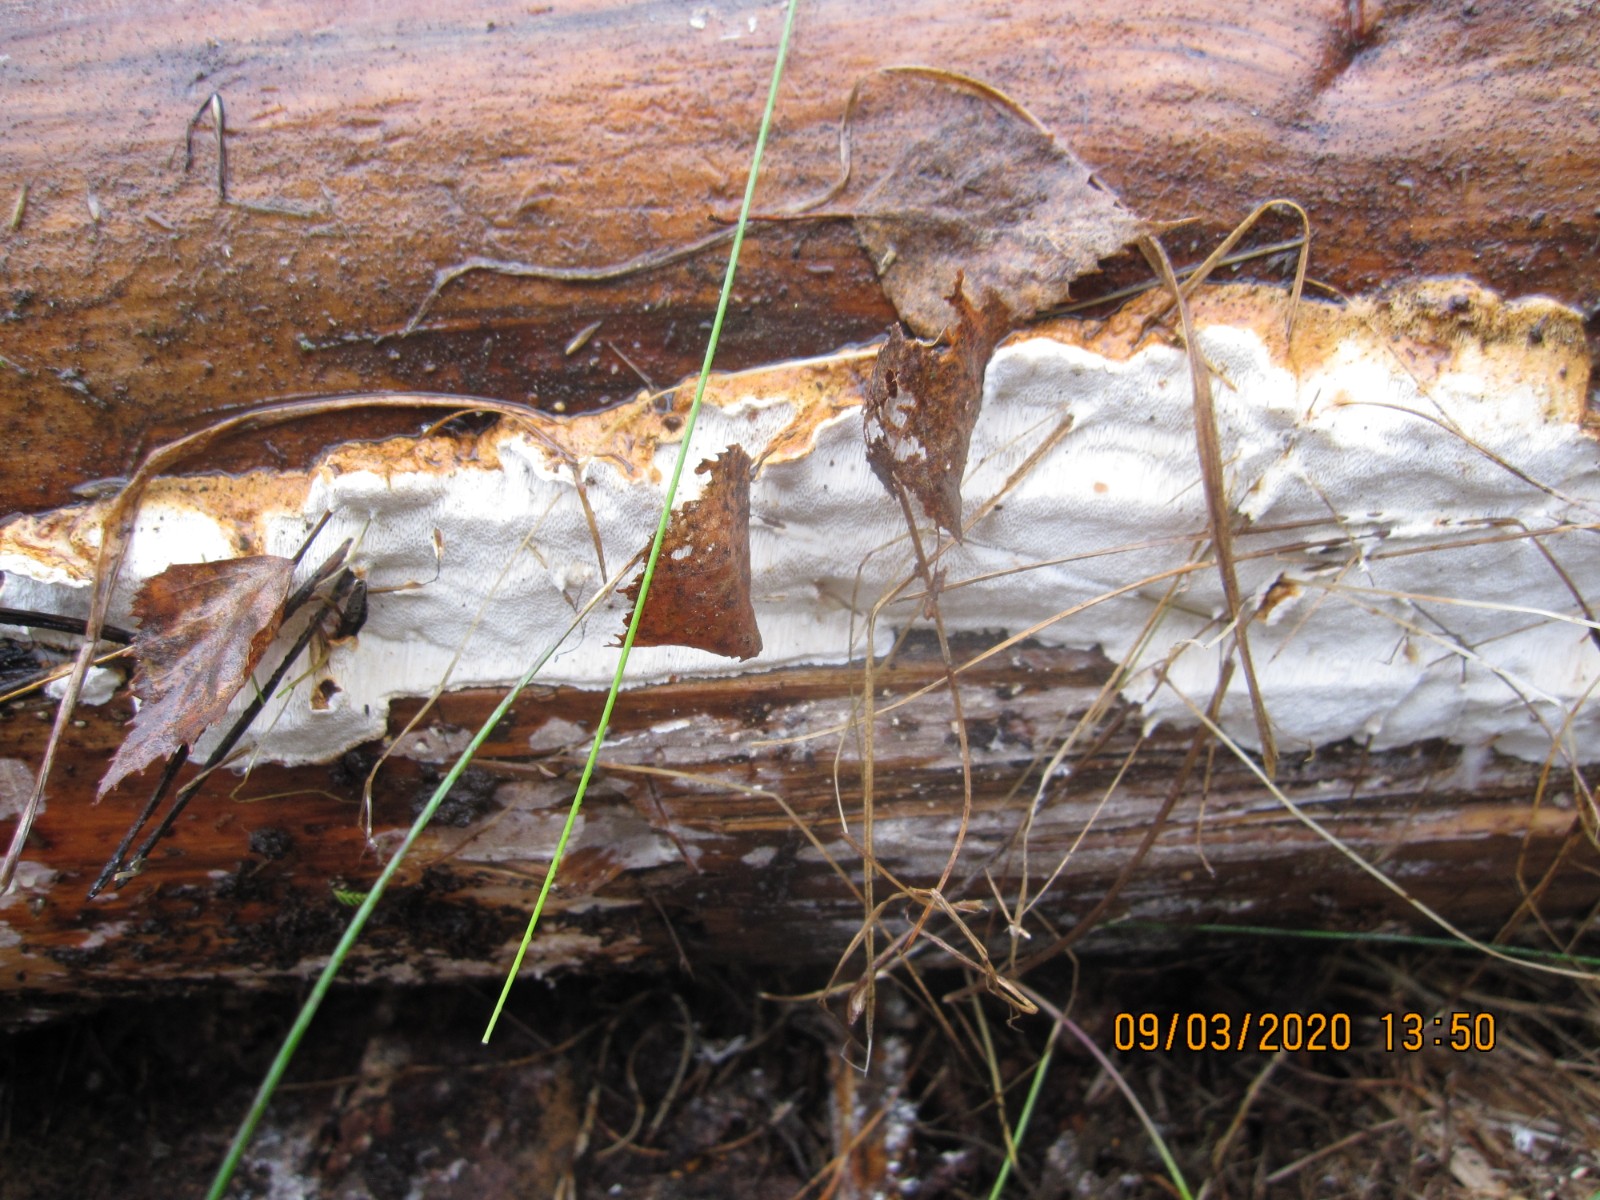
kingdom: Fungi
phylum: Basidiomycota
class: Agaricomycetes
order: Polyporales
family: Fomitopsidaceae
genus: Neoantrodia
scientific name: Neoantrodia serialis
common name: række-sejporesvamp
